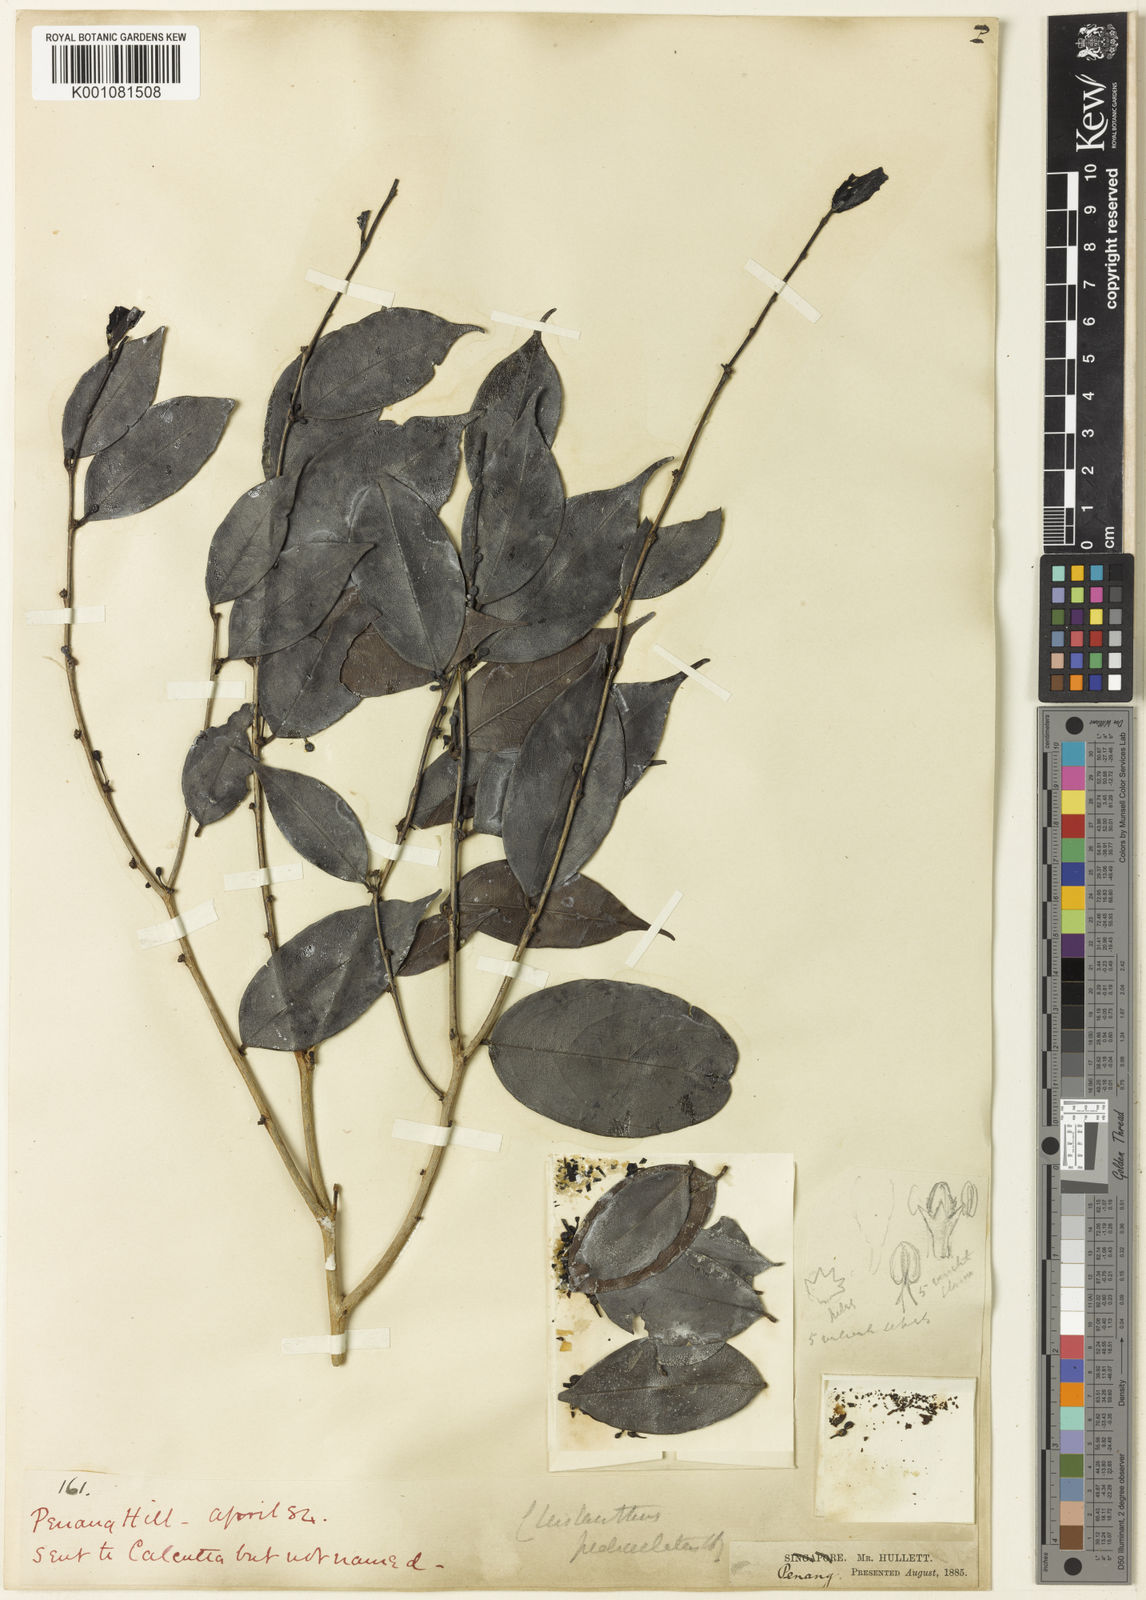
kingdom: Plantae
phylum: Tracheophyta
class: Magnoliopsida
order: Malpighiales
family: Phyllanthaceae
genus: Cleistanthus
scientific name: Cleistanthus pedicellatus
